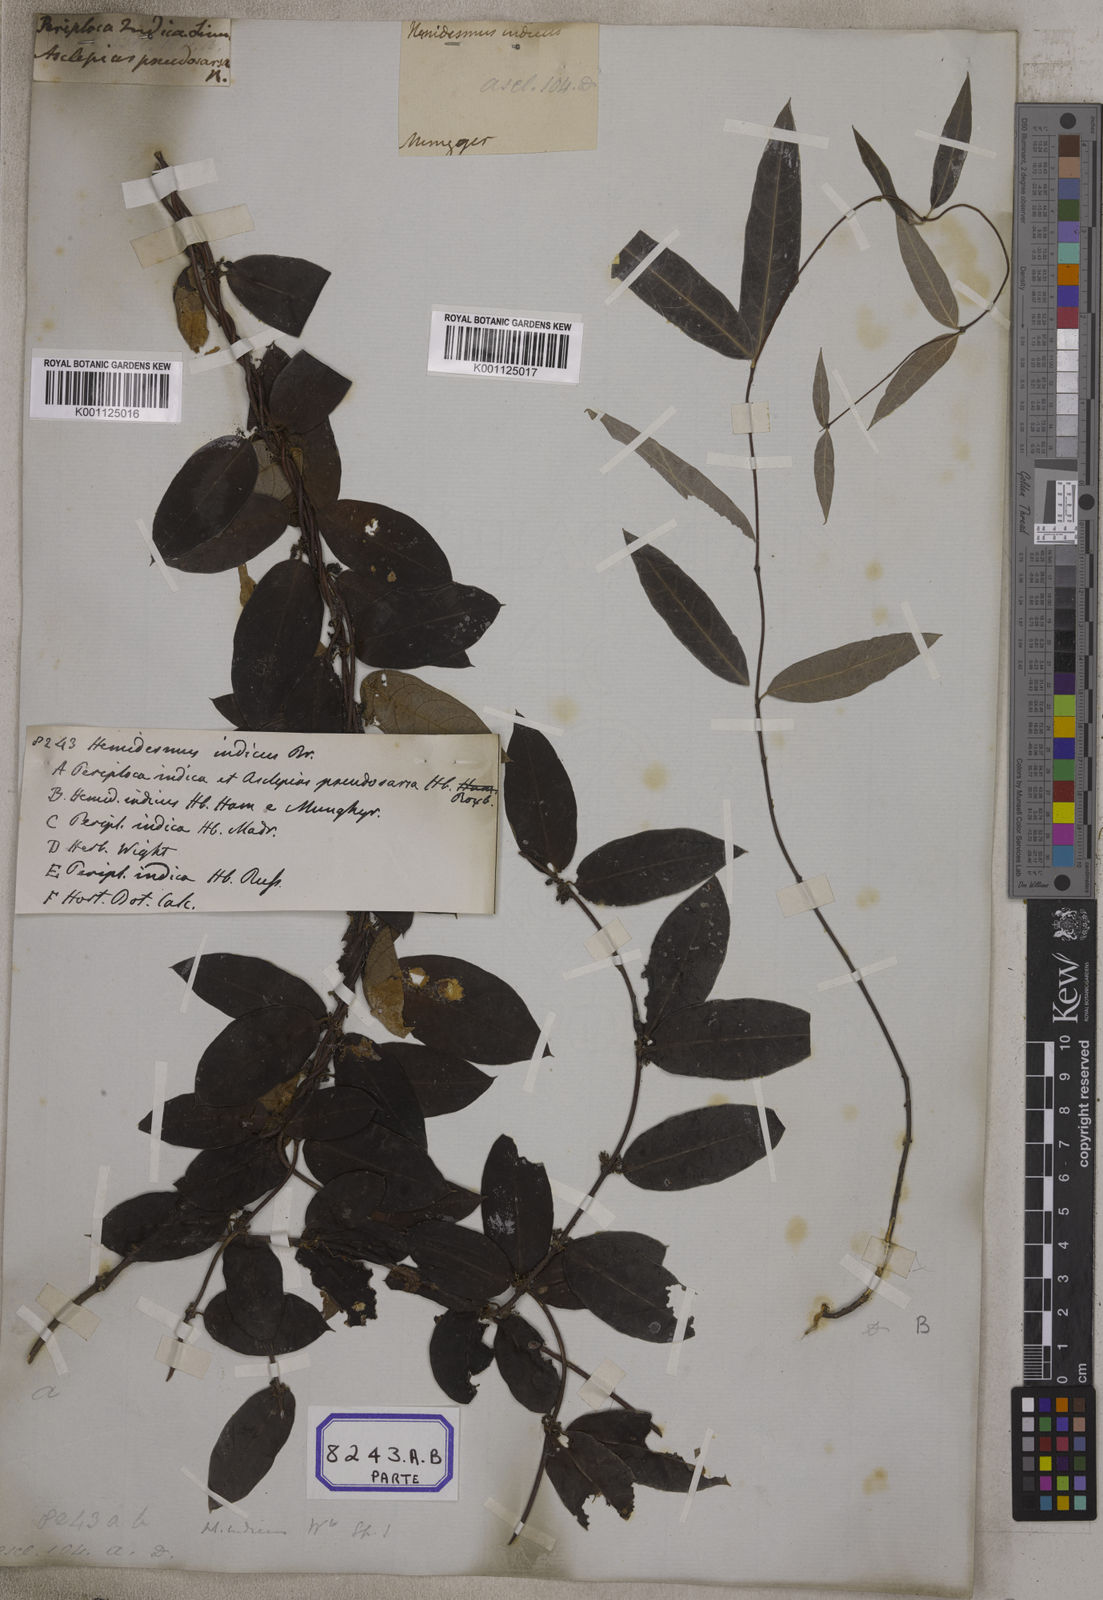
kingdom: Plantae
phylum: Tracheophyta
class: Magnoliopsida
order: Gentianales
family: Apocynaceae
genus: Hemidesmus
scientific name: Hemidesmus indicus
